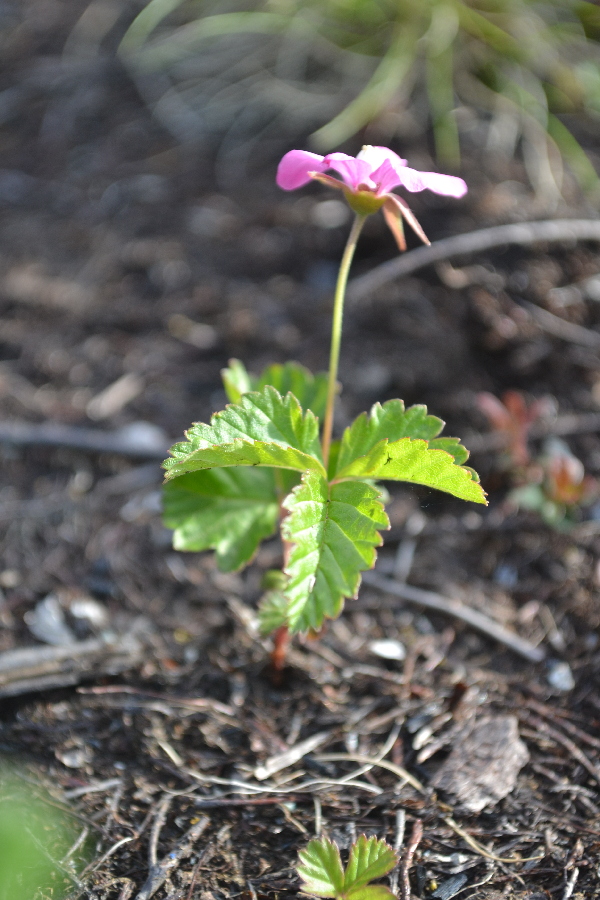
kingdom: Plantae
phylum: Tracheophyta
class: Magnoliopsida
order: Rosales
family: Rosaceae
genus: Rubus
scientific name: Rubus arcticus
